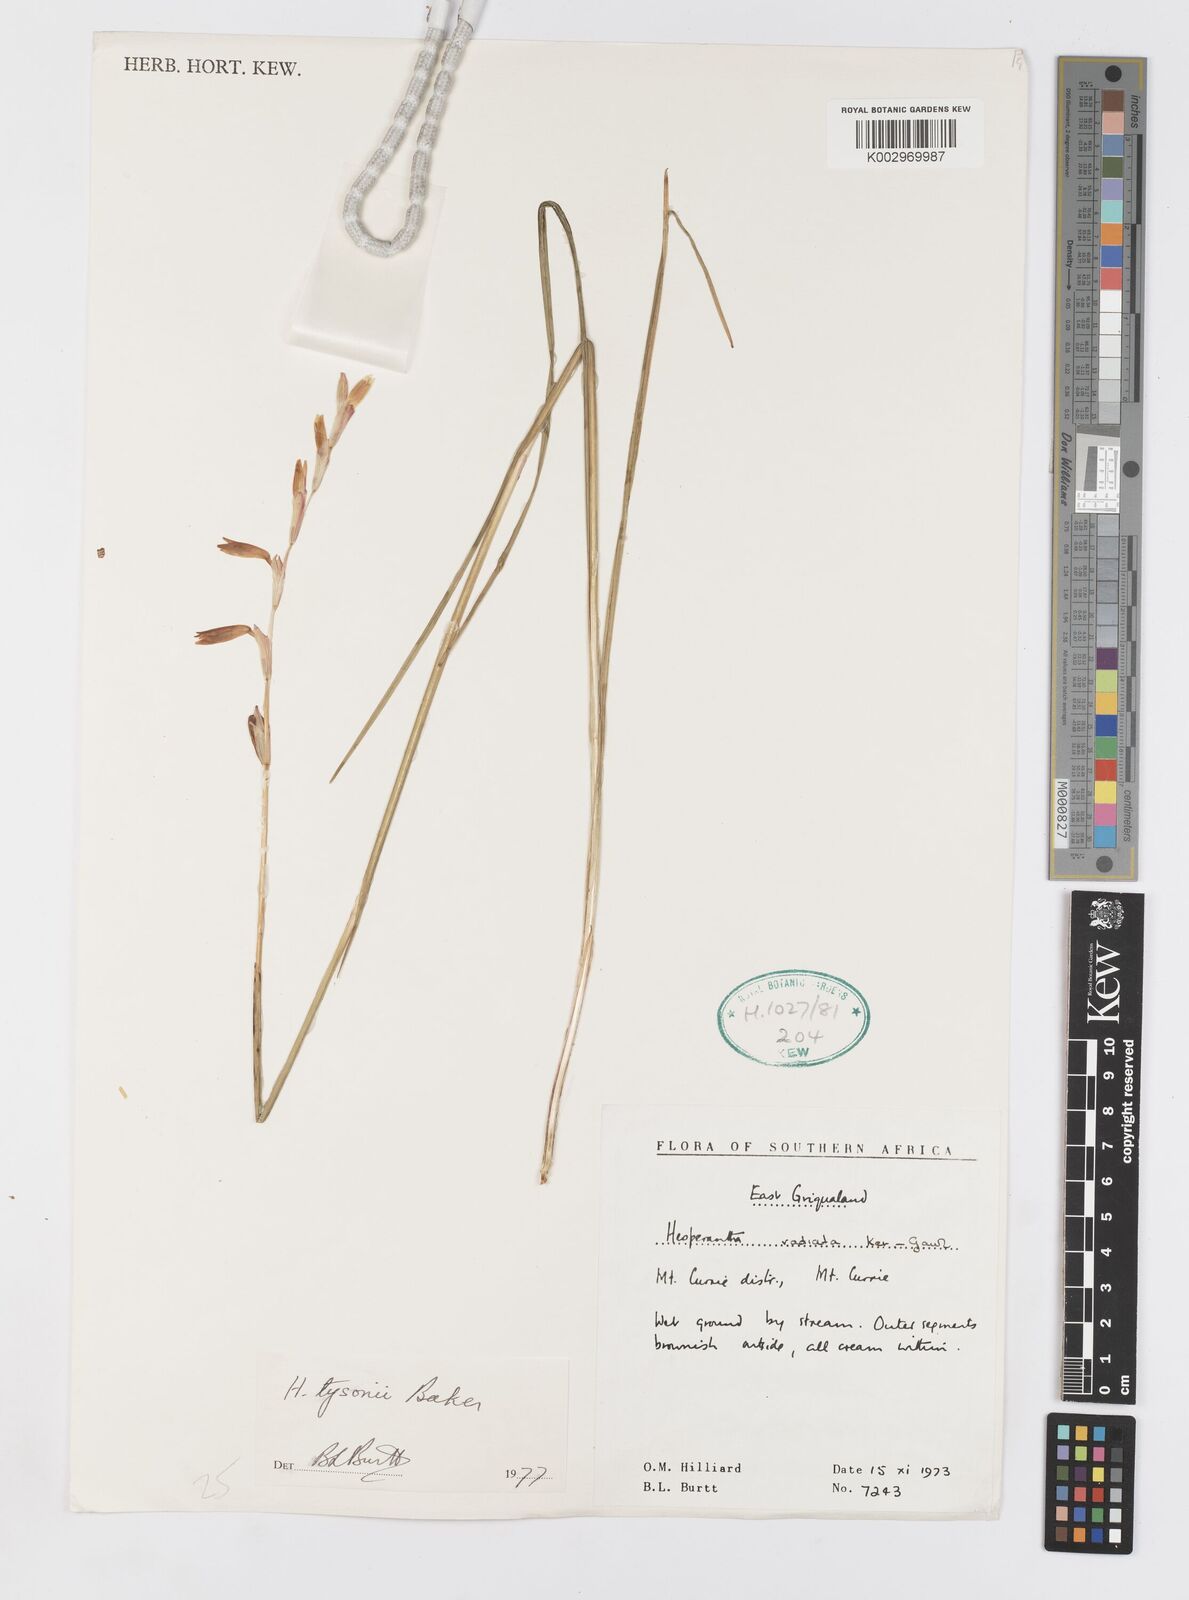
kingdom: Plantae
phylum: Tracheophyta
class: Liliopsida
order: Asparagales
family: Iridaceae
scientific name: Iridaceae
